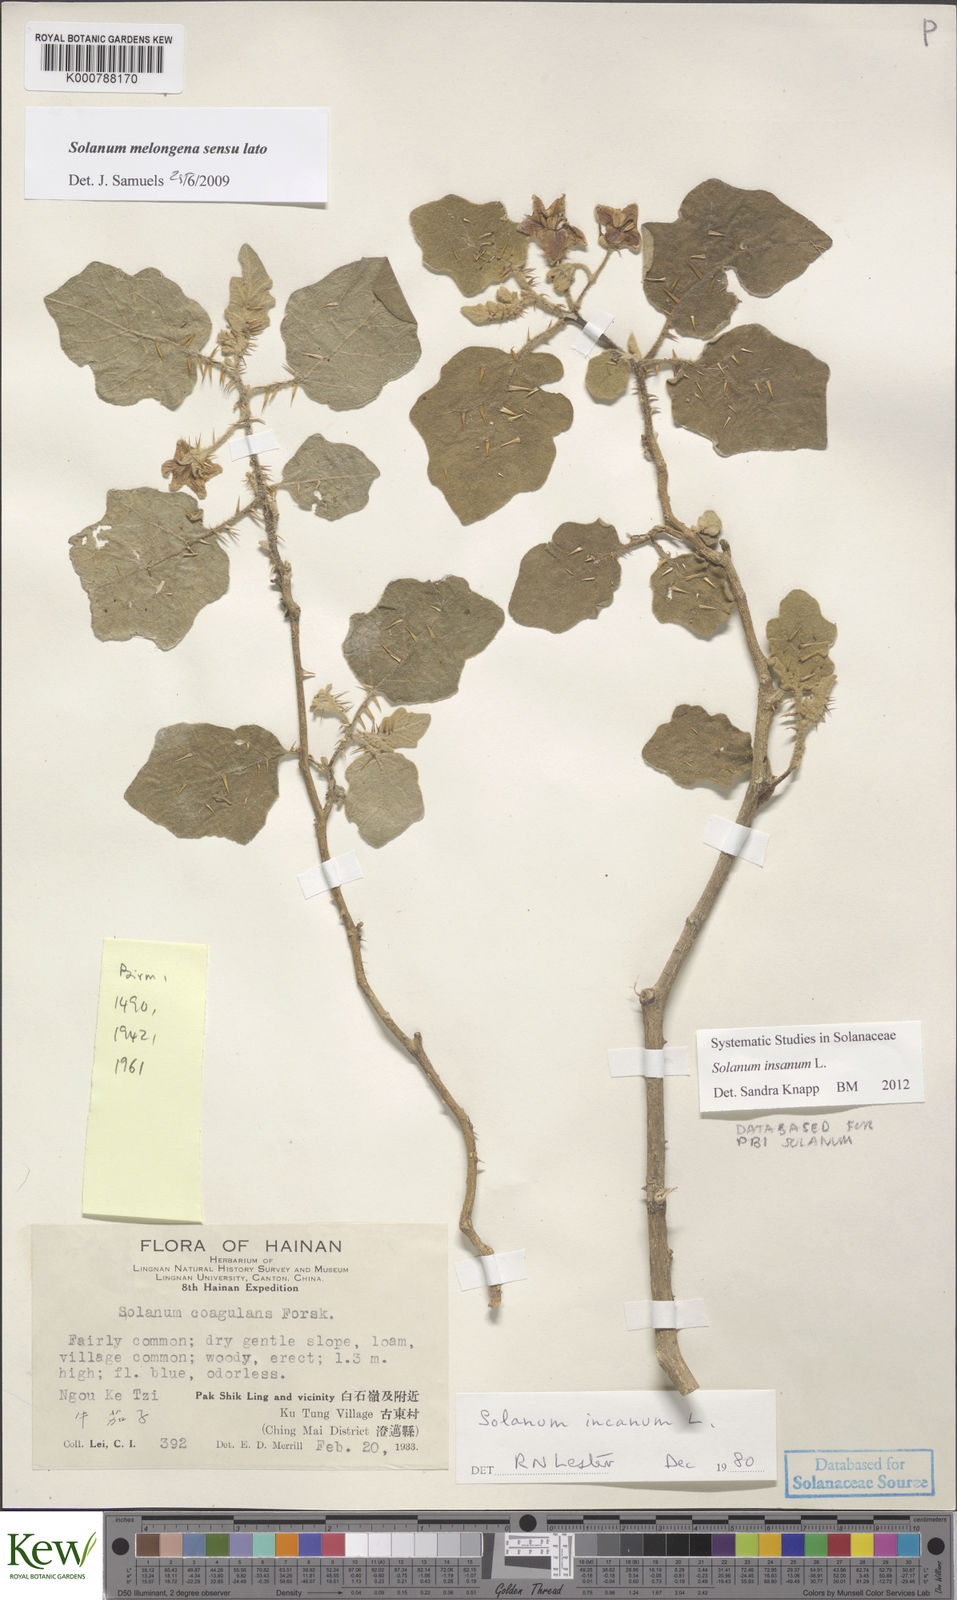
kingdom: Plantae
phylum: Tracheophyta
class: Magnoliopsida
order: Solanales
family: Solanaceae
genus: Solanum
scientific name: Solanum insanum
